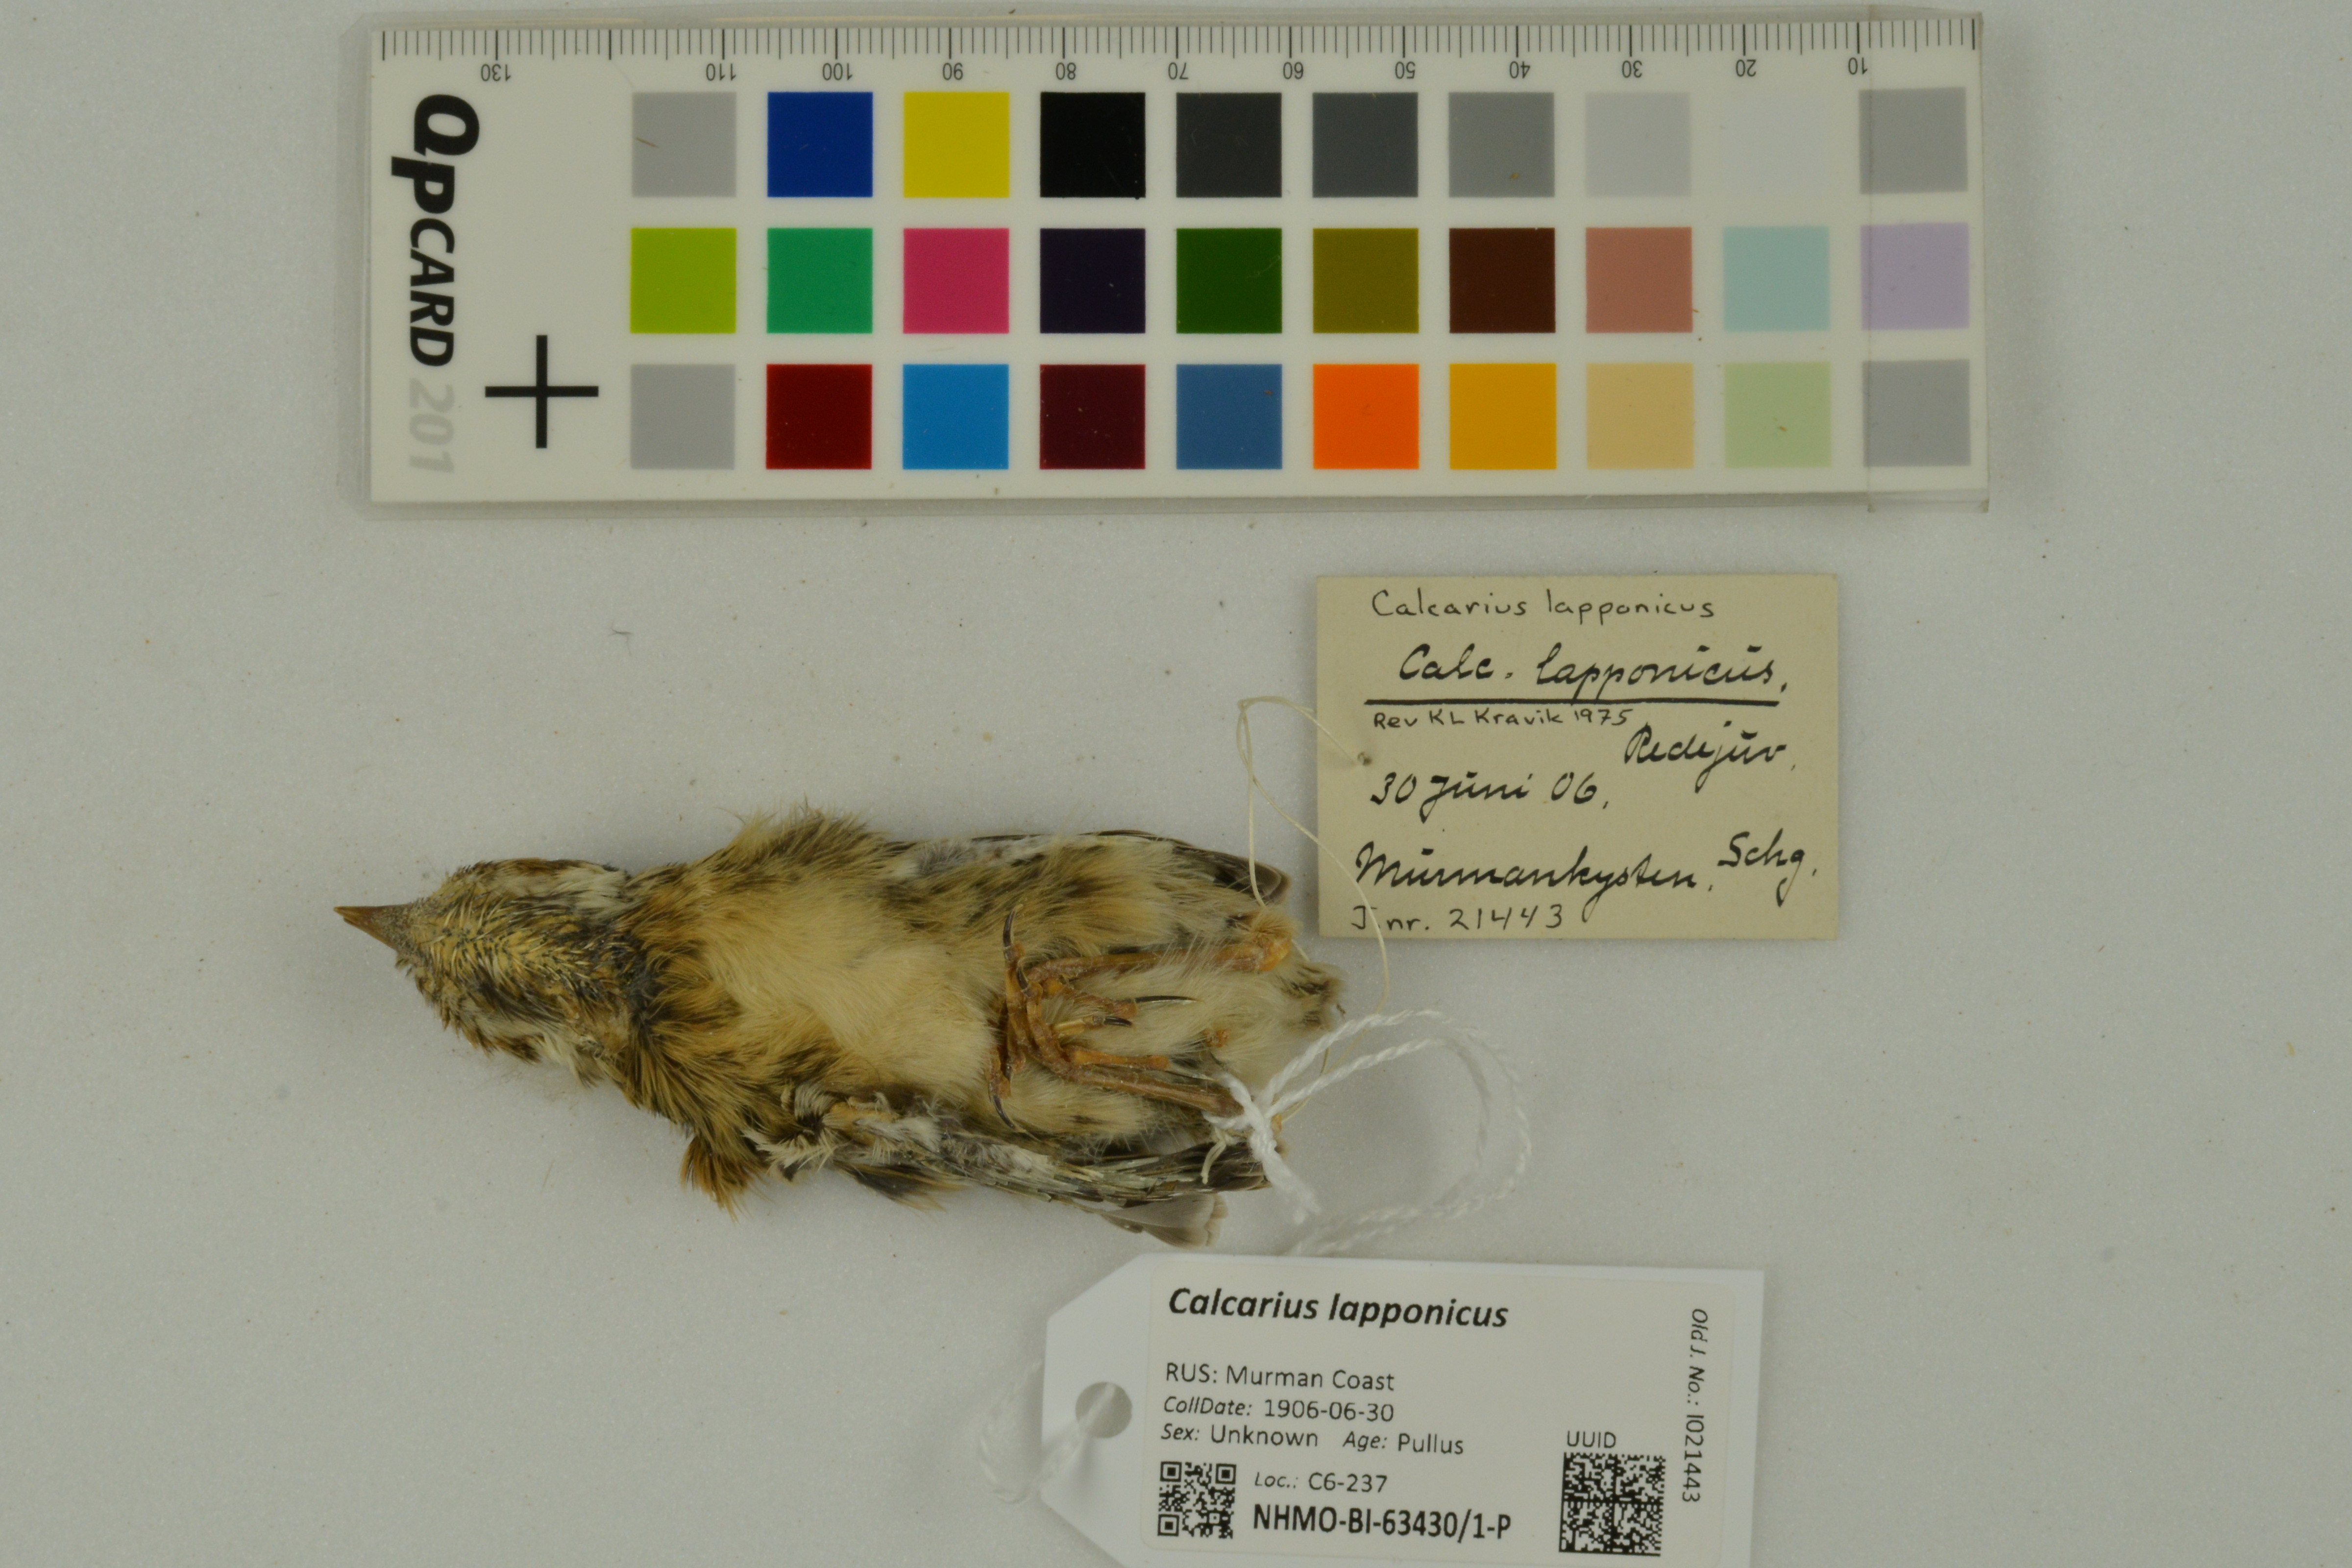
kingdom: Animalia
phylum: Chordata
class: Aves
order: Passeriformes
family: Calcariidae
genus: Calcarius
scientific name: Calcarius lapponicus
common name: Lapland longspur
